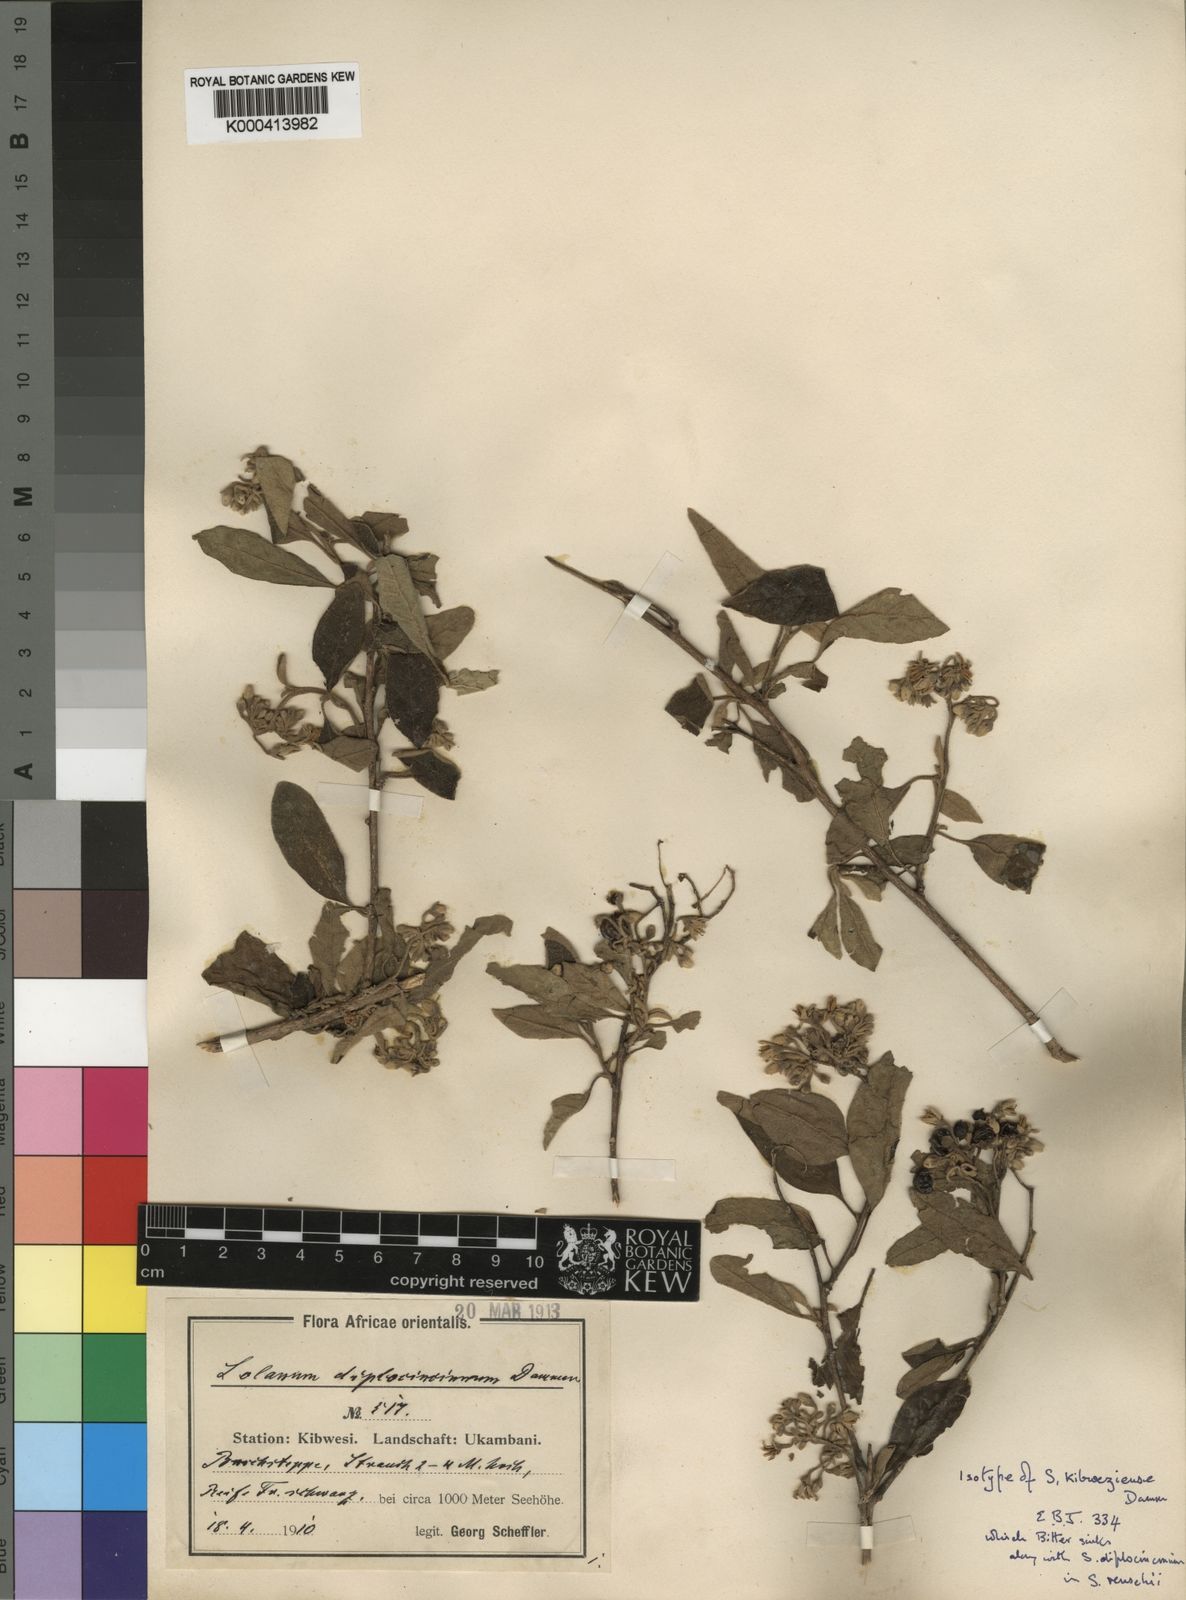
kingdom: Plantae
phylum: Tracheophyta
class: Magnoliopsida
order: Solanales
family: Solanaceae
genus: Solanum
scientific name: Solanum tettense
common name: Mozambique bitter apple
